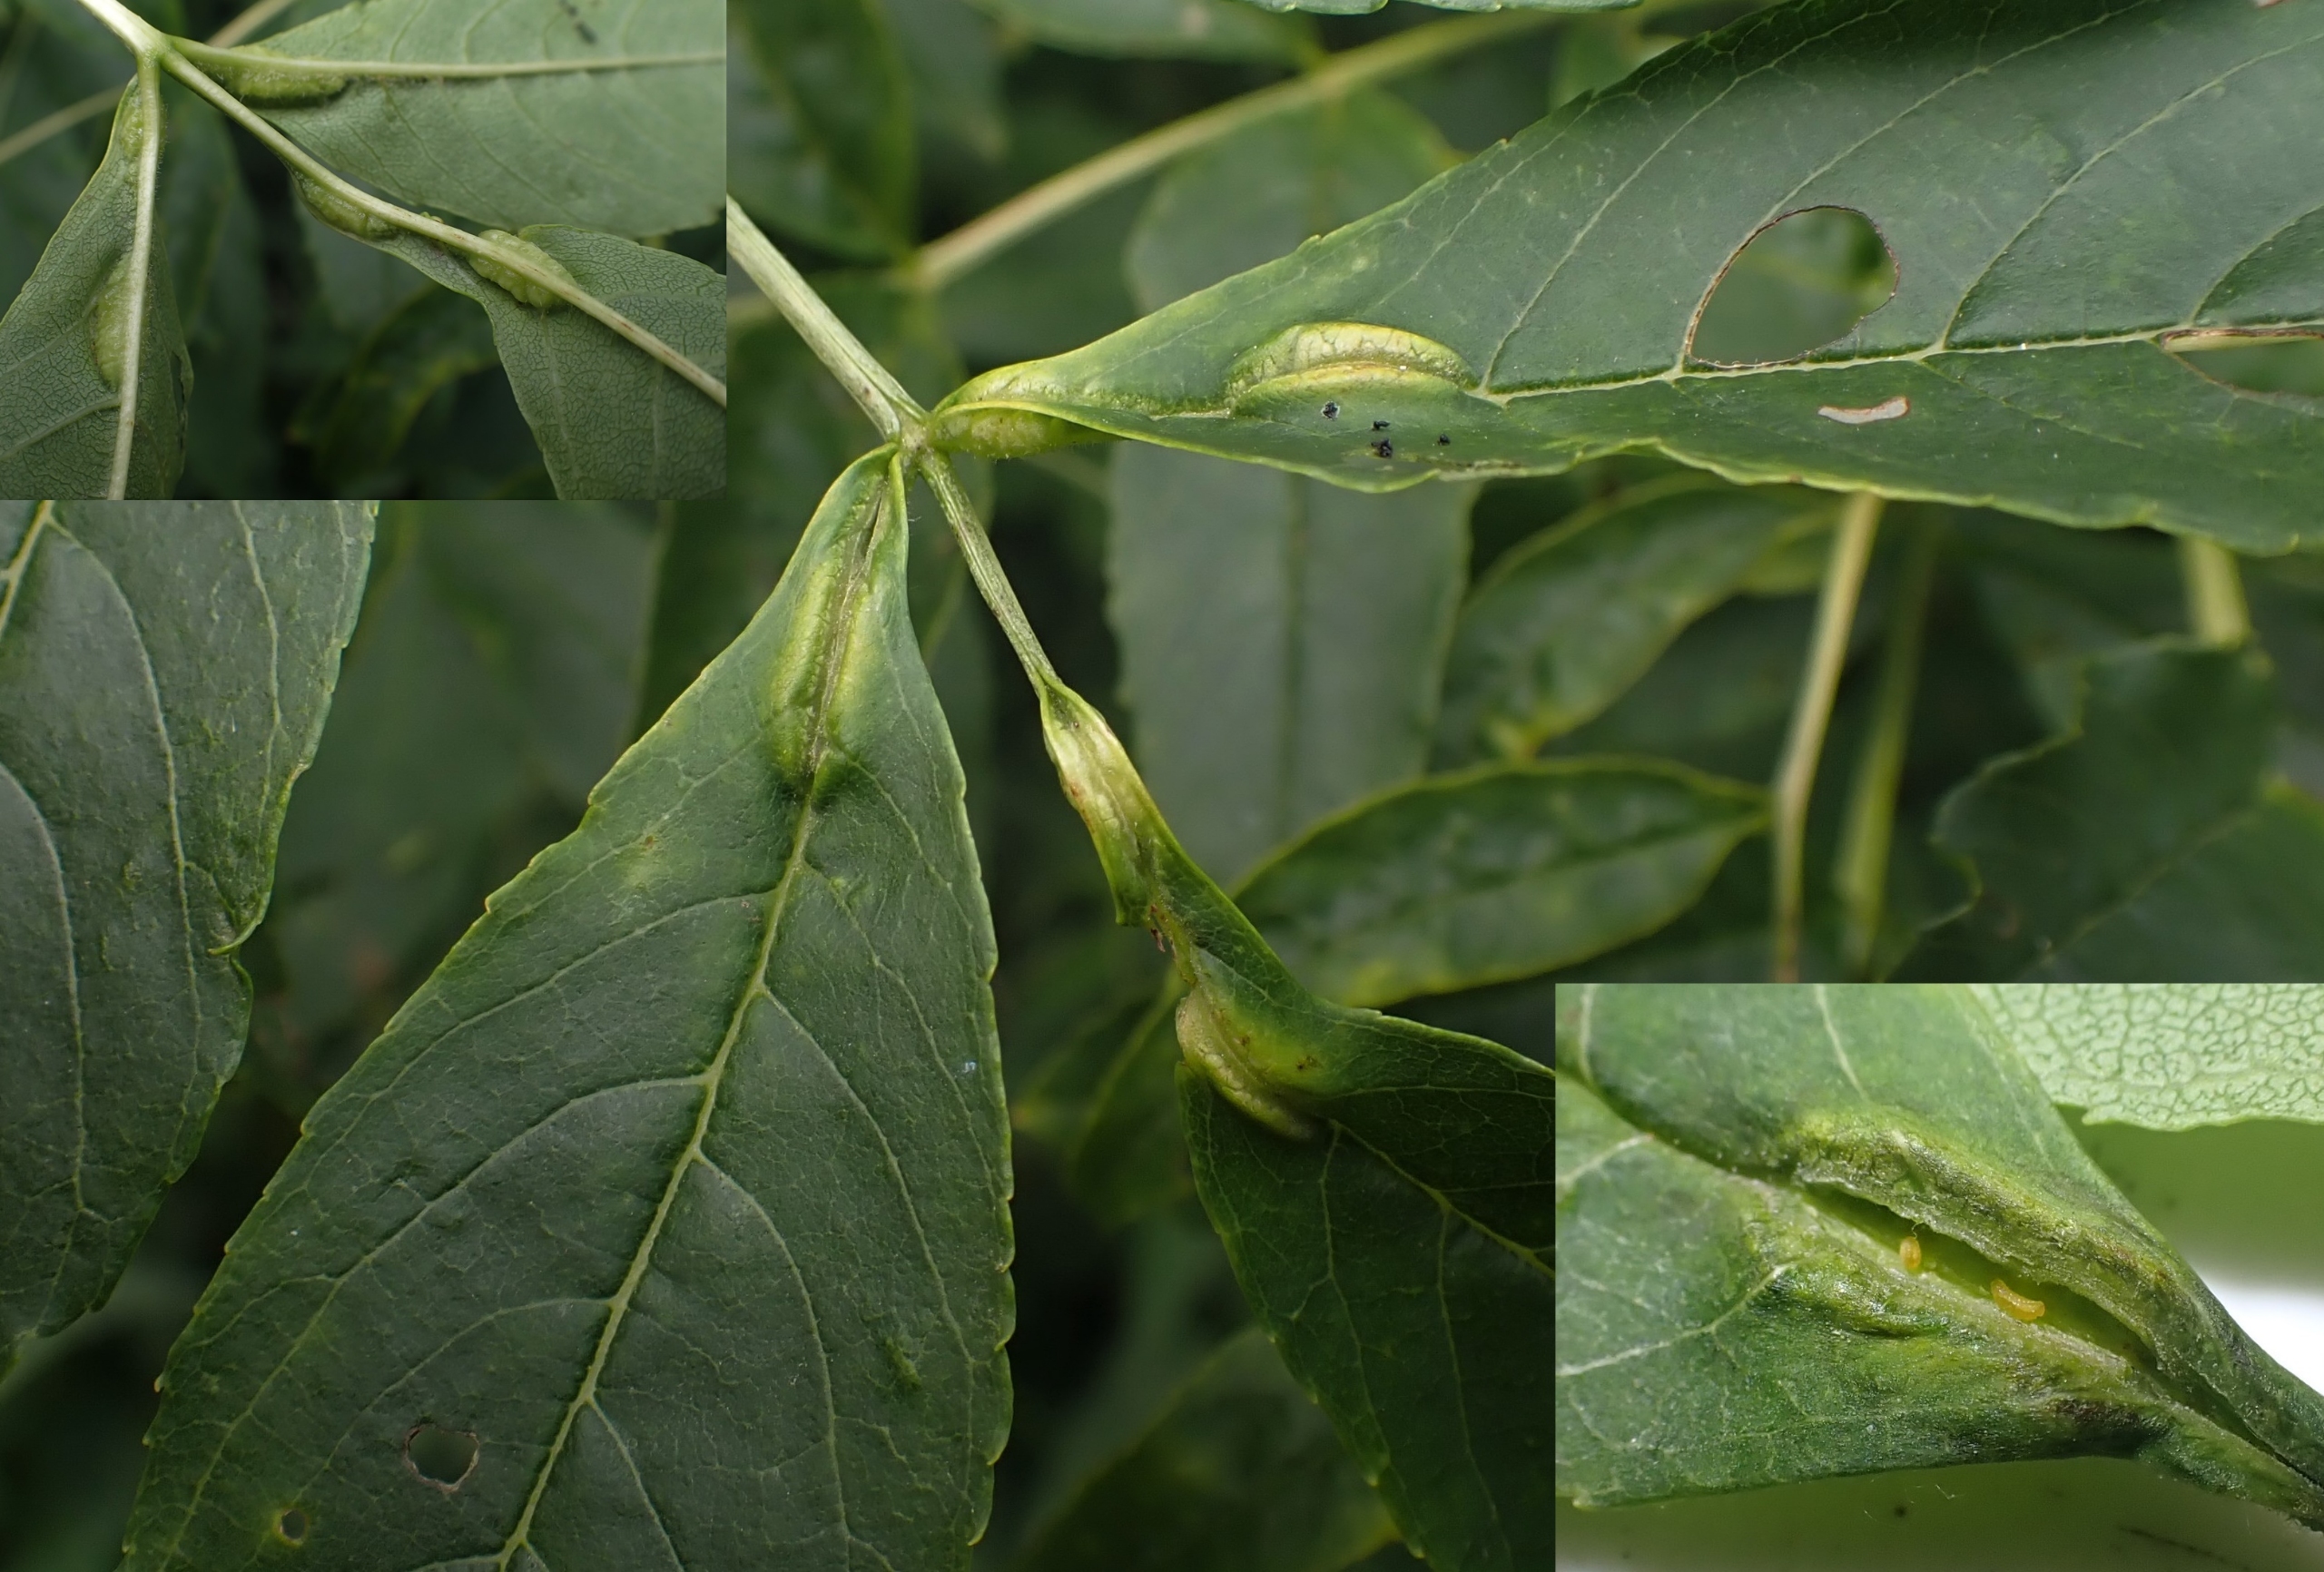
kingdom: Animalia
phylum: Arthropoda
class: Insecta
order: Diptera
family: Cecidomyiidae
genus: Dasineura
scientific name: Dasineura fraxini
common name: Orange askebladgalmyg
